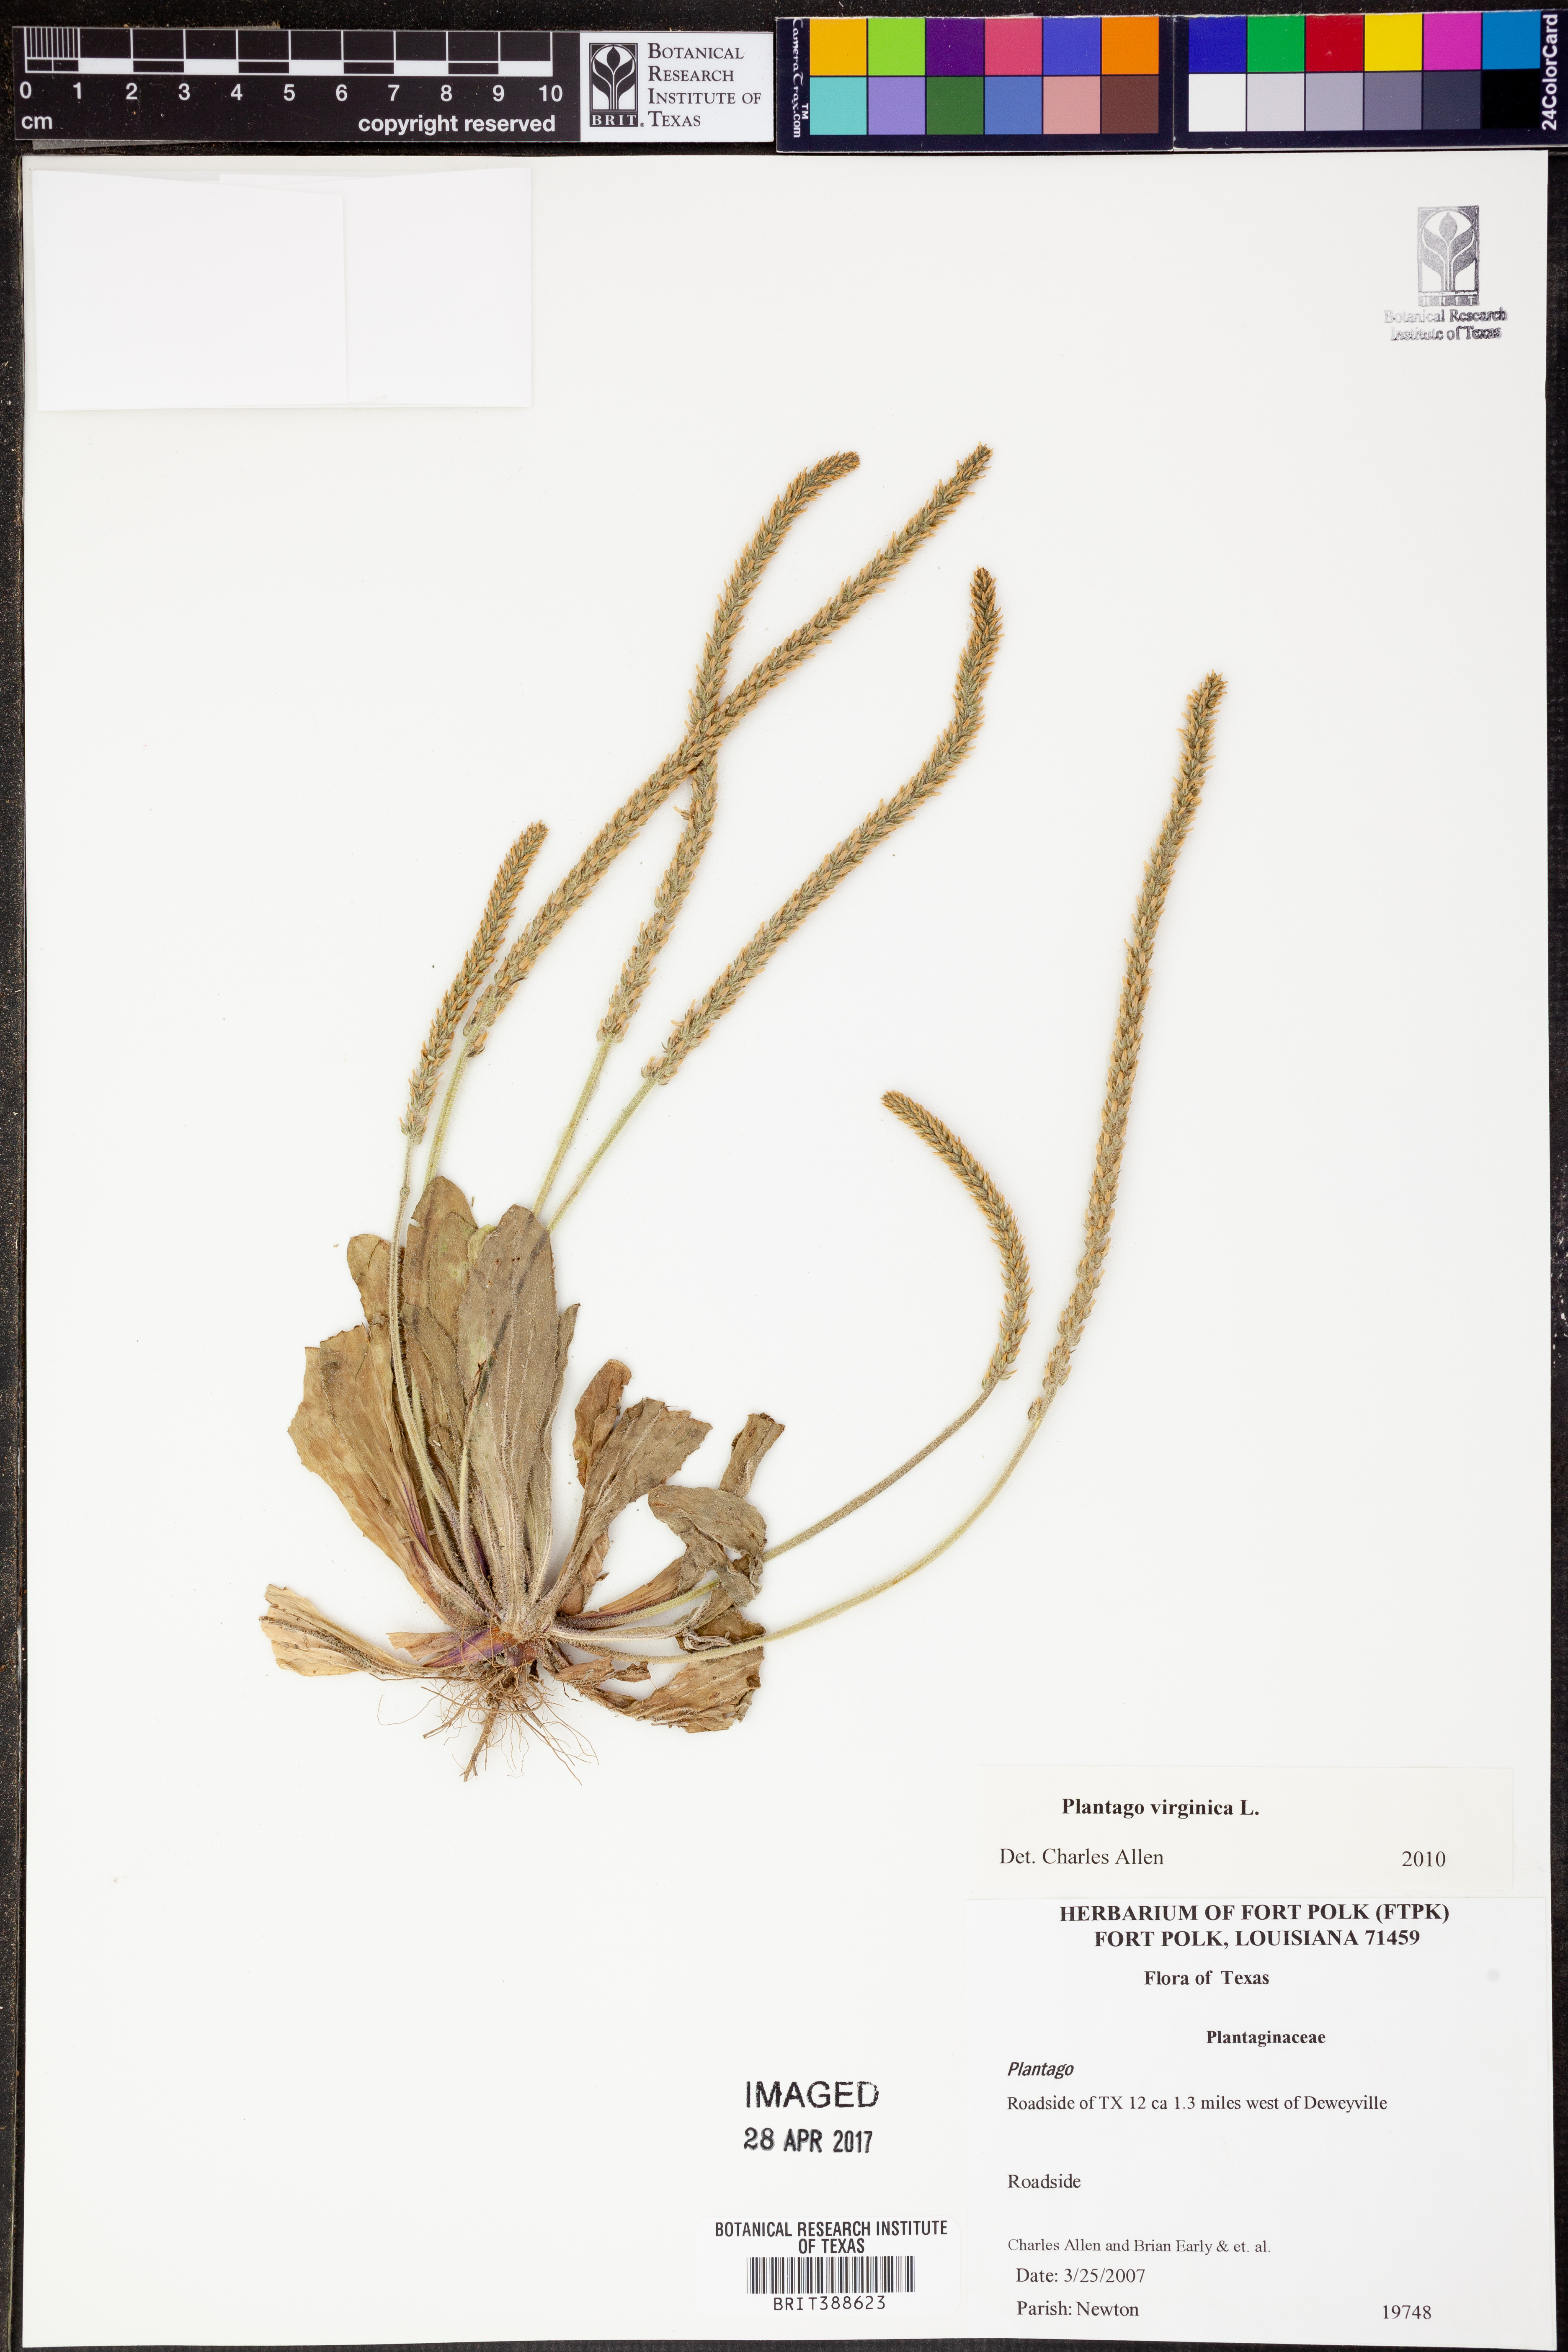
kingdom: Plantae
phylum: Tracheophyta
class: Magnoliopsida
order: Lamiales
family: Plantaginaceae
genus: Plantago
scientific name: Plantago virginica
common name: Hoary plantain
